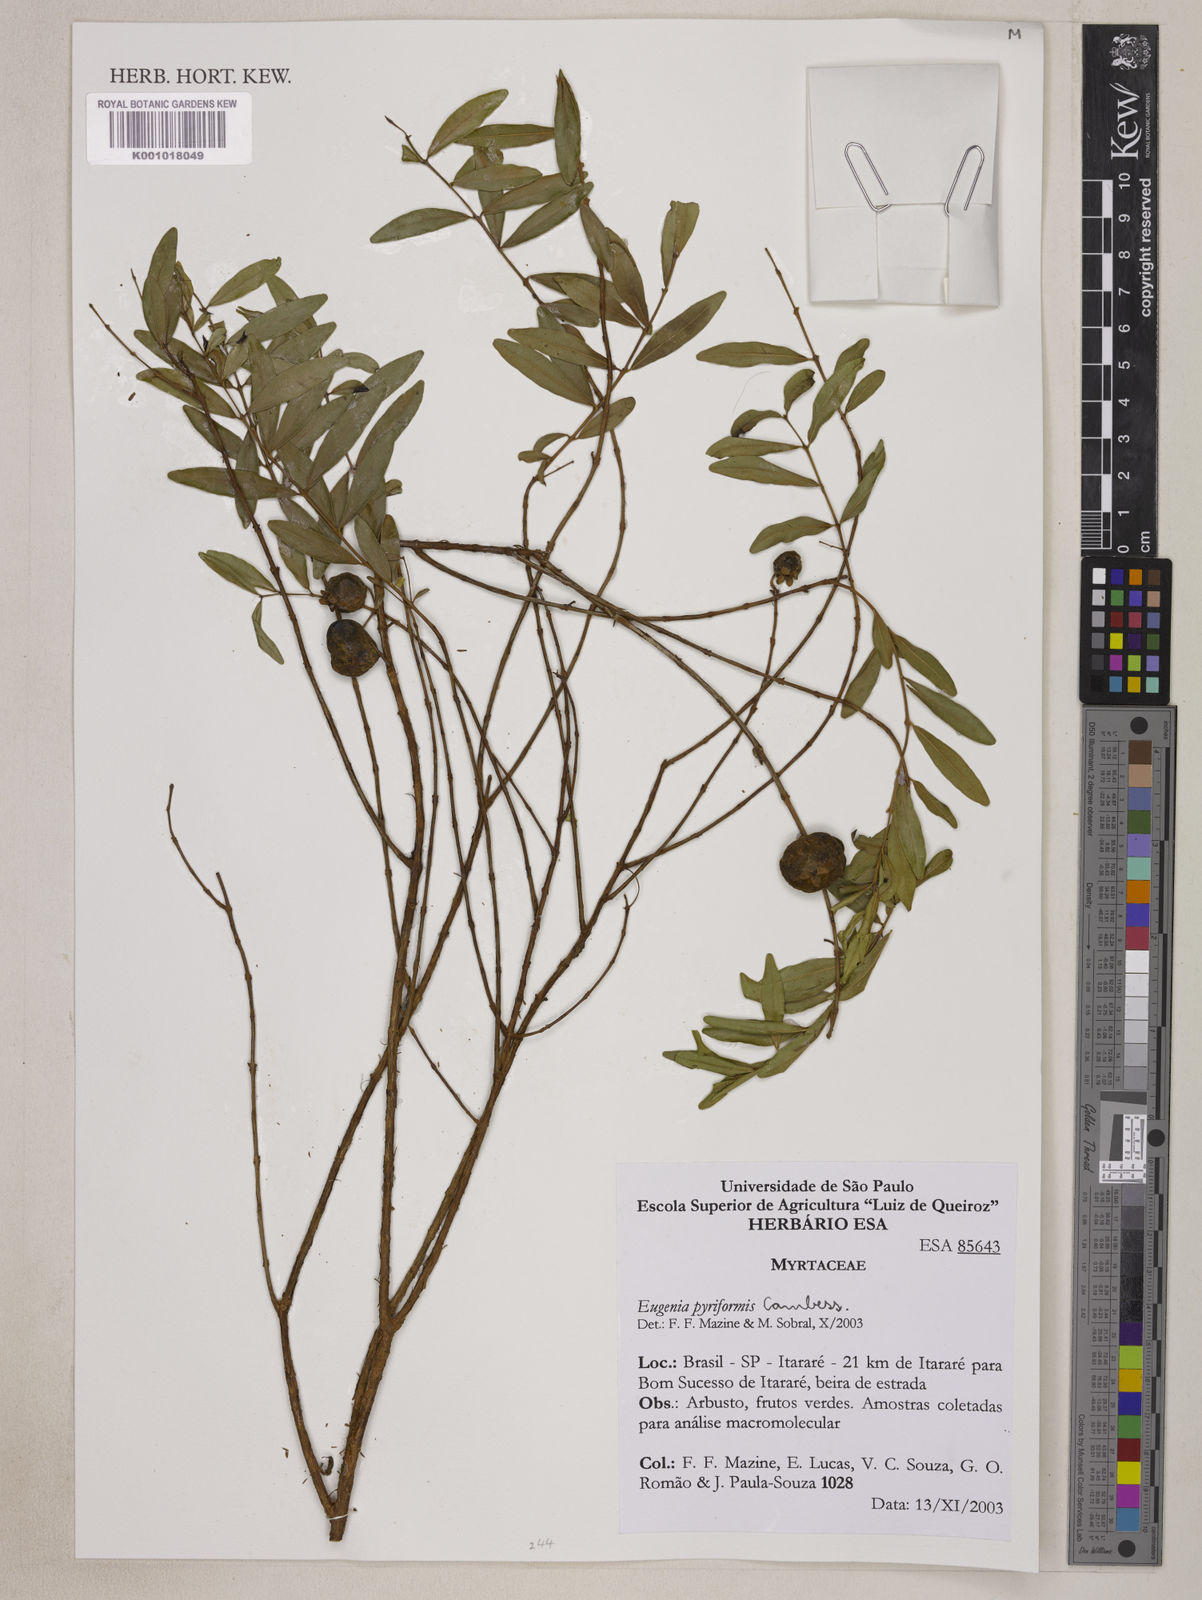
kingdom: Plantae
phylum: Tracheophyta
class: Magnoliopsida
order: Myrtales
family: Myrtaceae
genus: Eugenia
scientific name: Eugenia pyriformis
